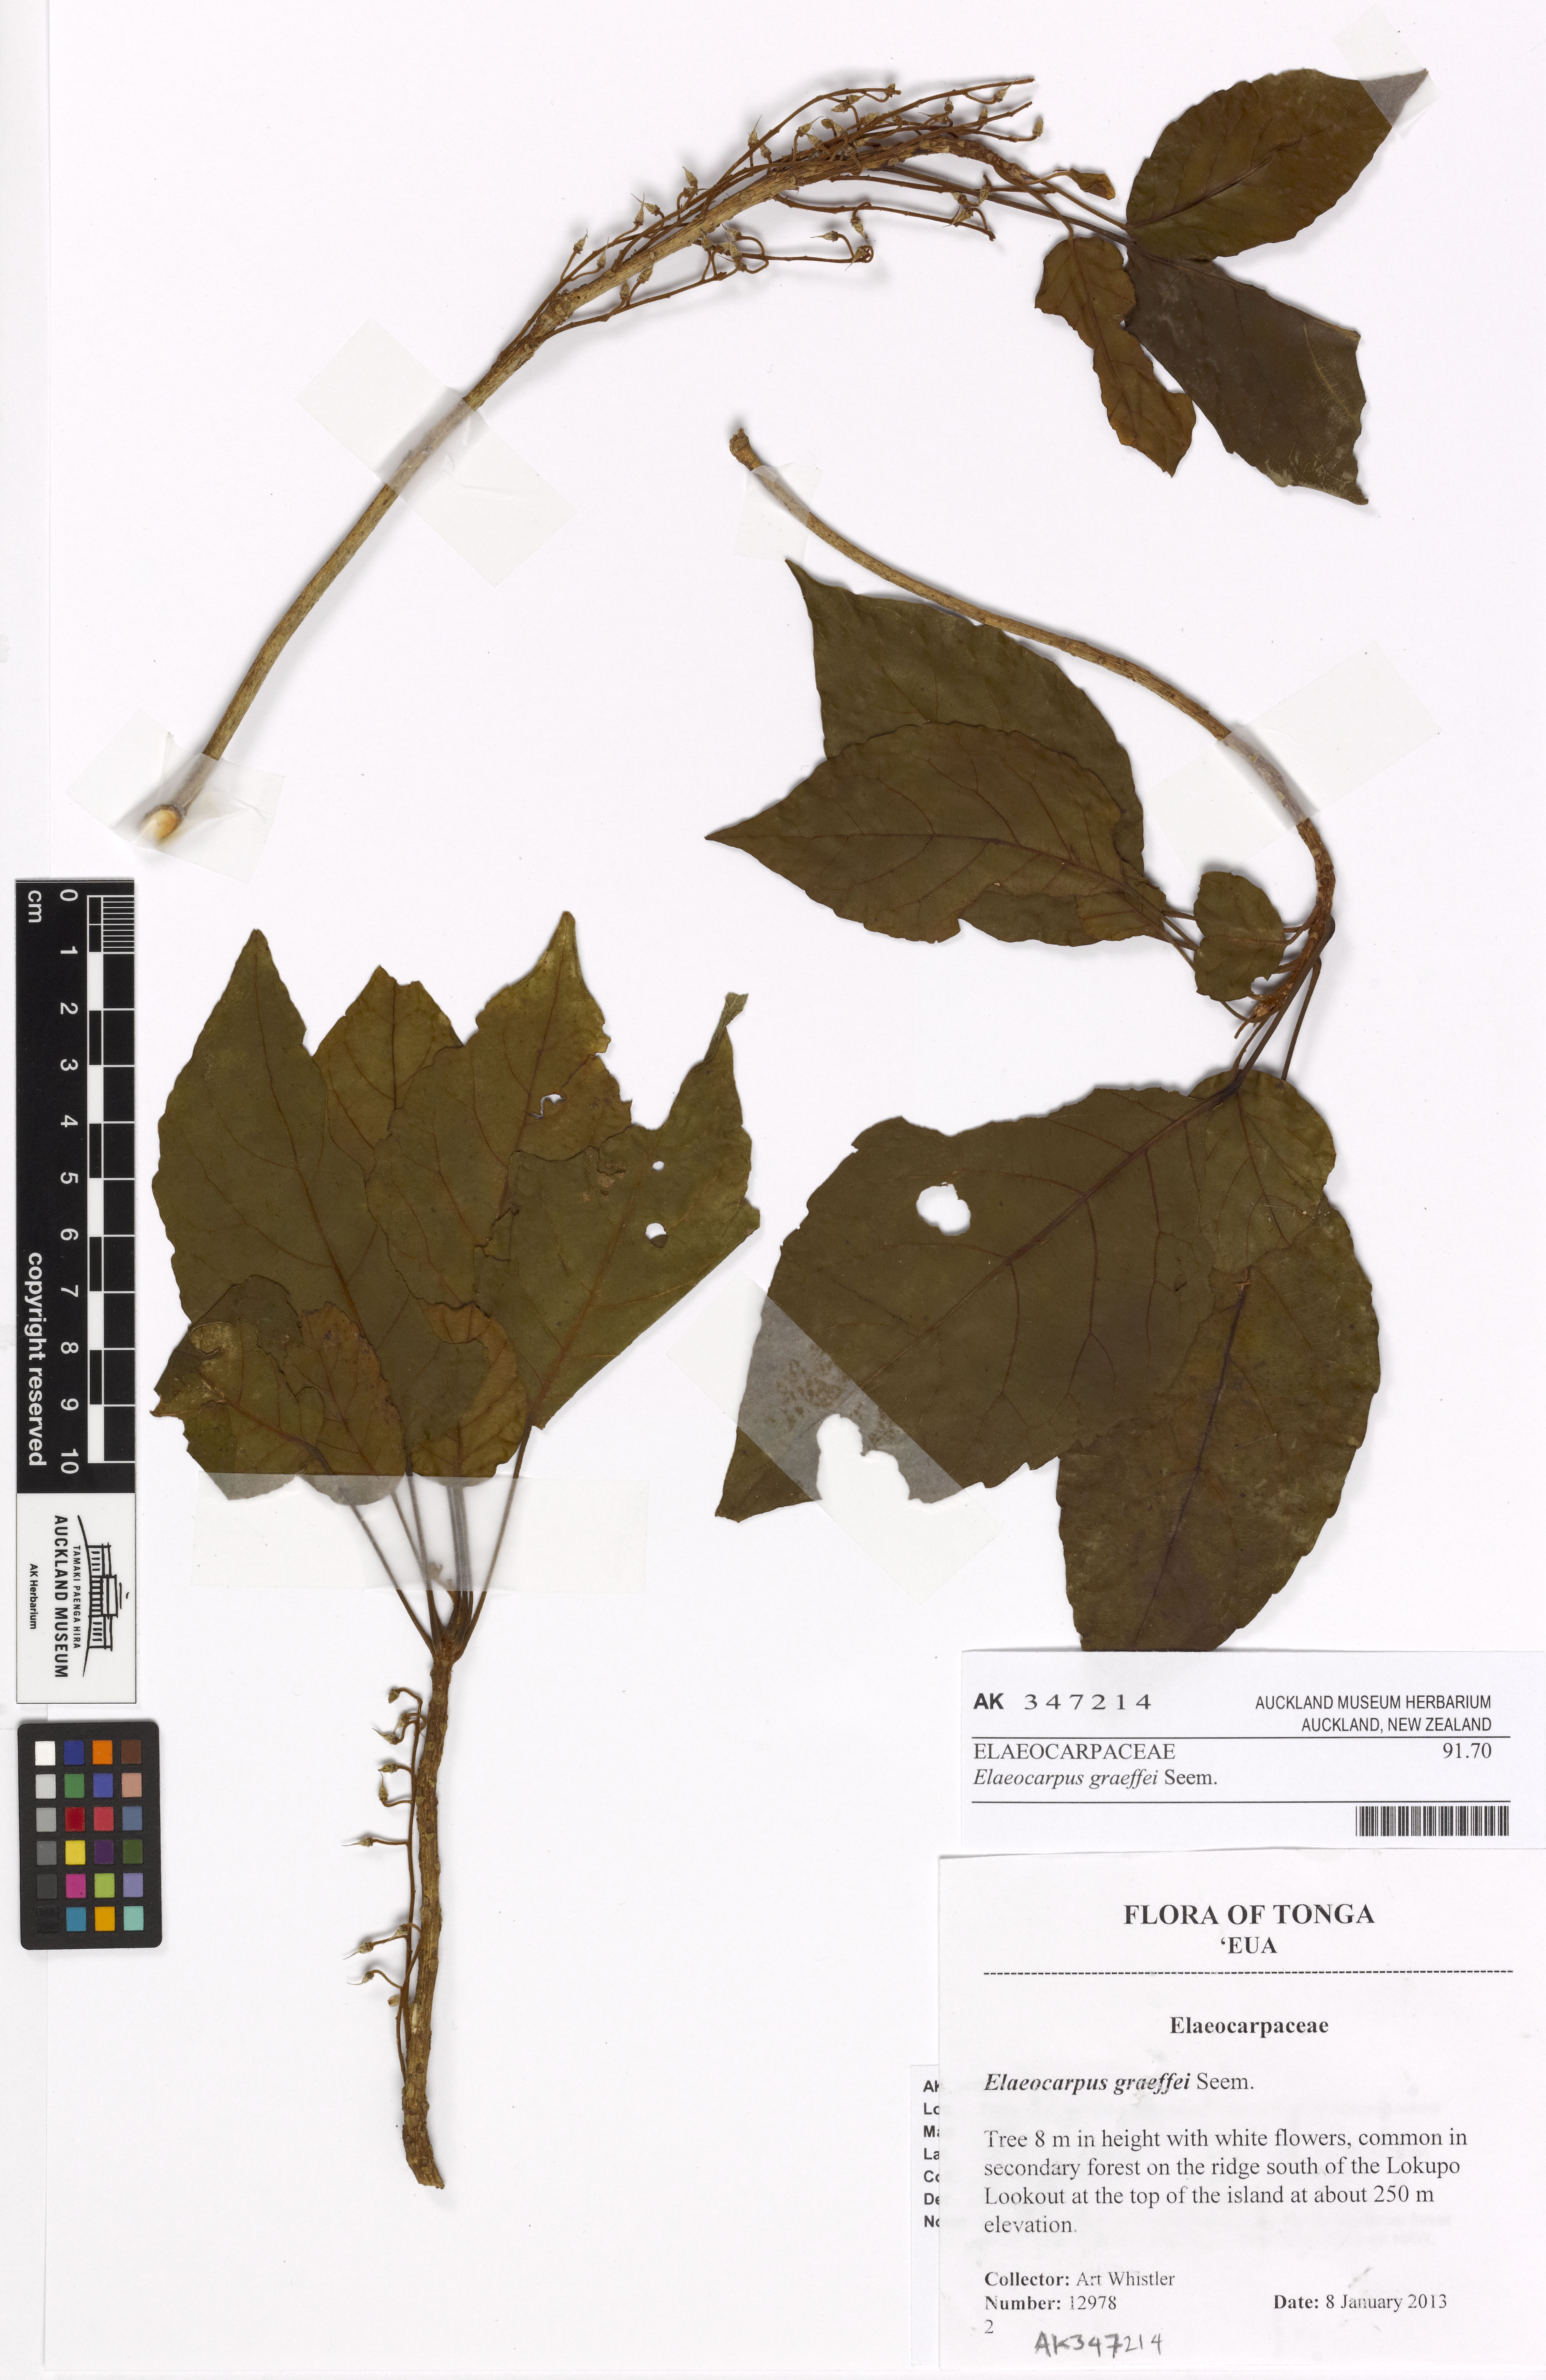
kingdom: Plantae
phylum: Tracheophyta
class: Magnoliopsida
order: Oxalidales
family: Elaeocarpaceae
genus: Elaeocarpus
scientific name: Elaeocarpus graeffei
